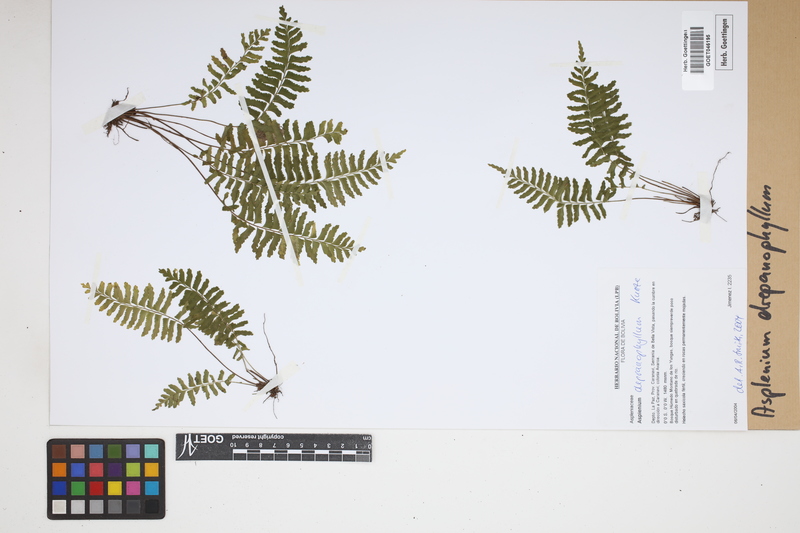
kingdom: Plantae
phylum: Tracheophyta
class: Polypodiopsida
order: Polypodiales
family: Aspleniaceae
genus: Asplenium
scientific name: Asplenium drepanophyllum
